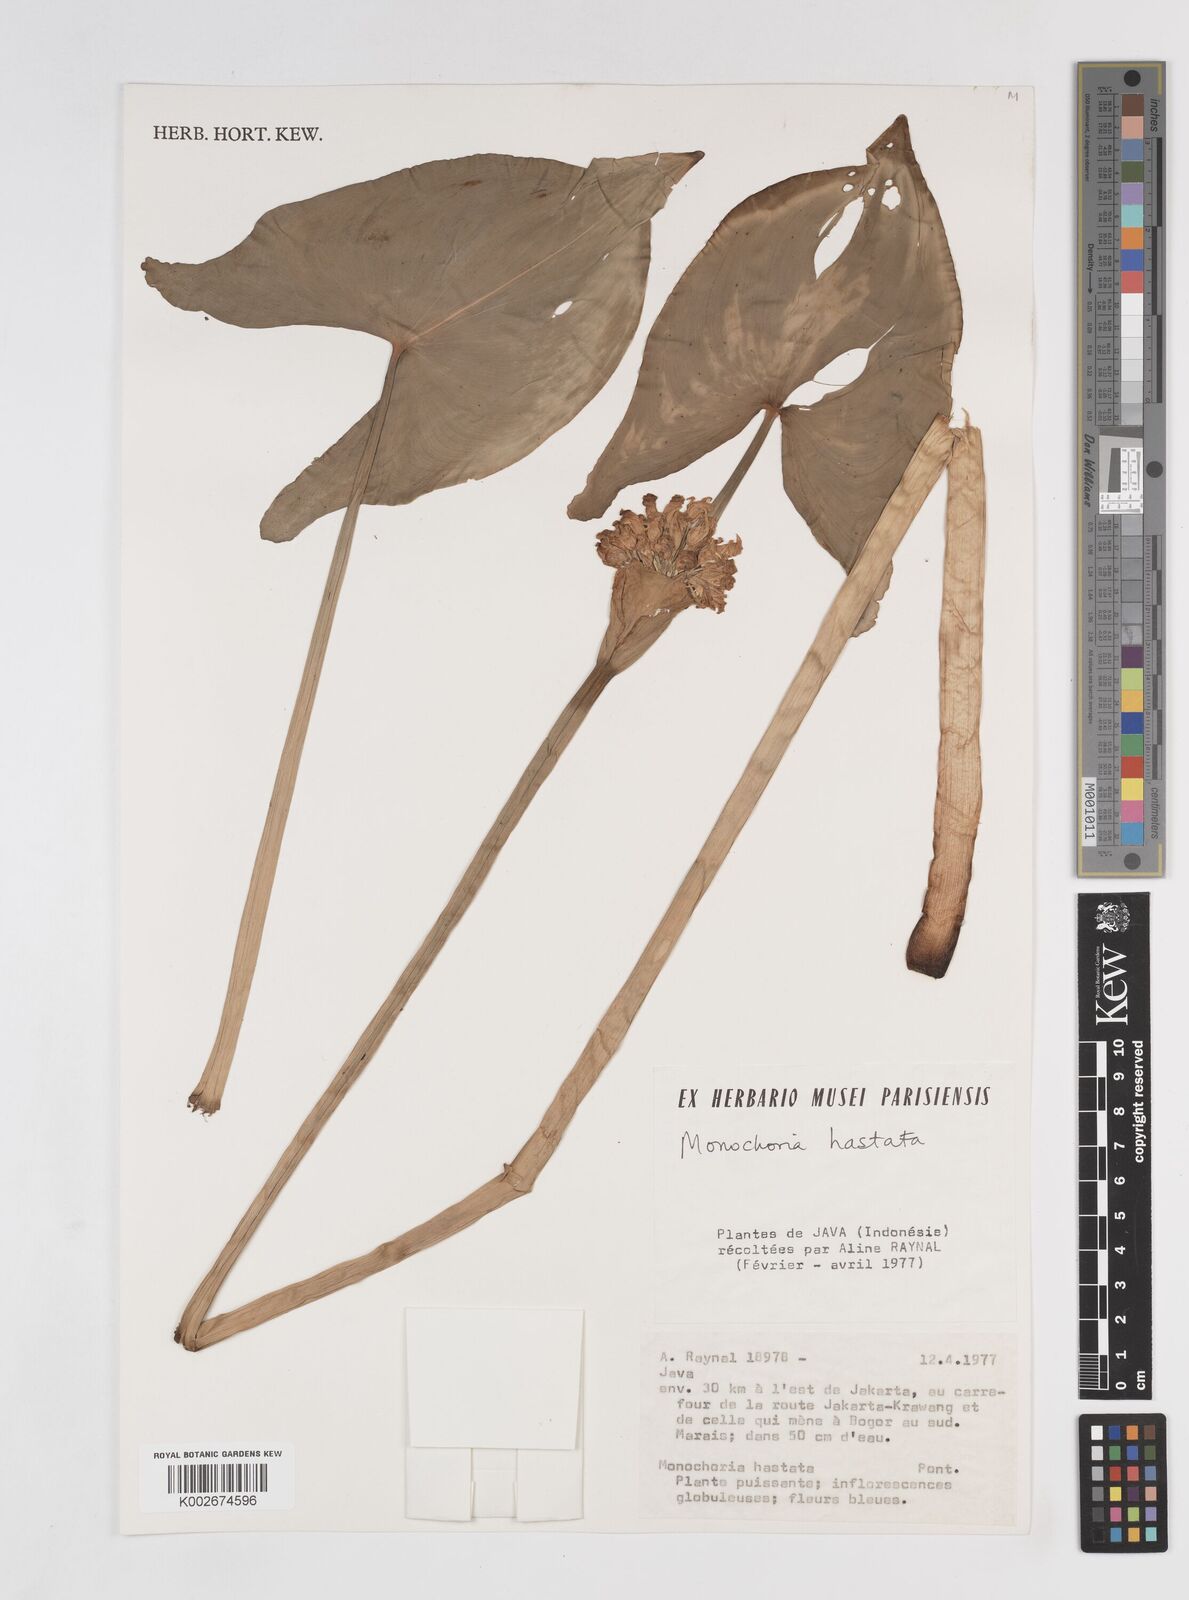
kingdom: Plantae
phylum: Tracheophyta
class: Liliopsida
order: Commelinales
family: Pontederiaceae
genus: Pontederia
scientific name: Pontederia hastata
